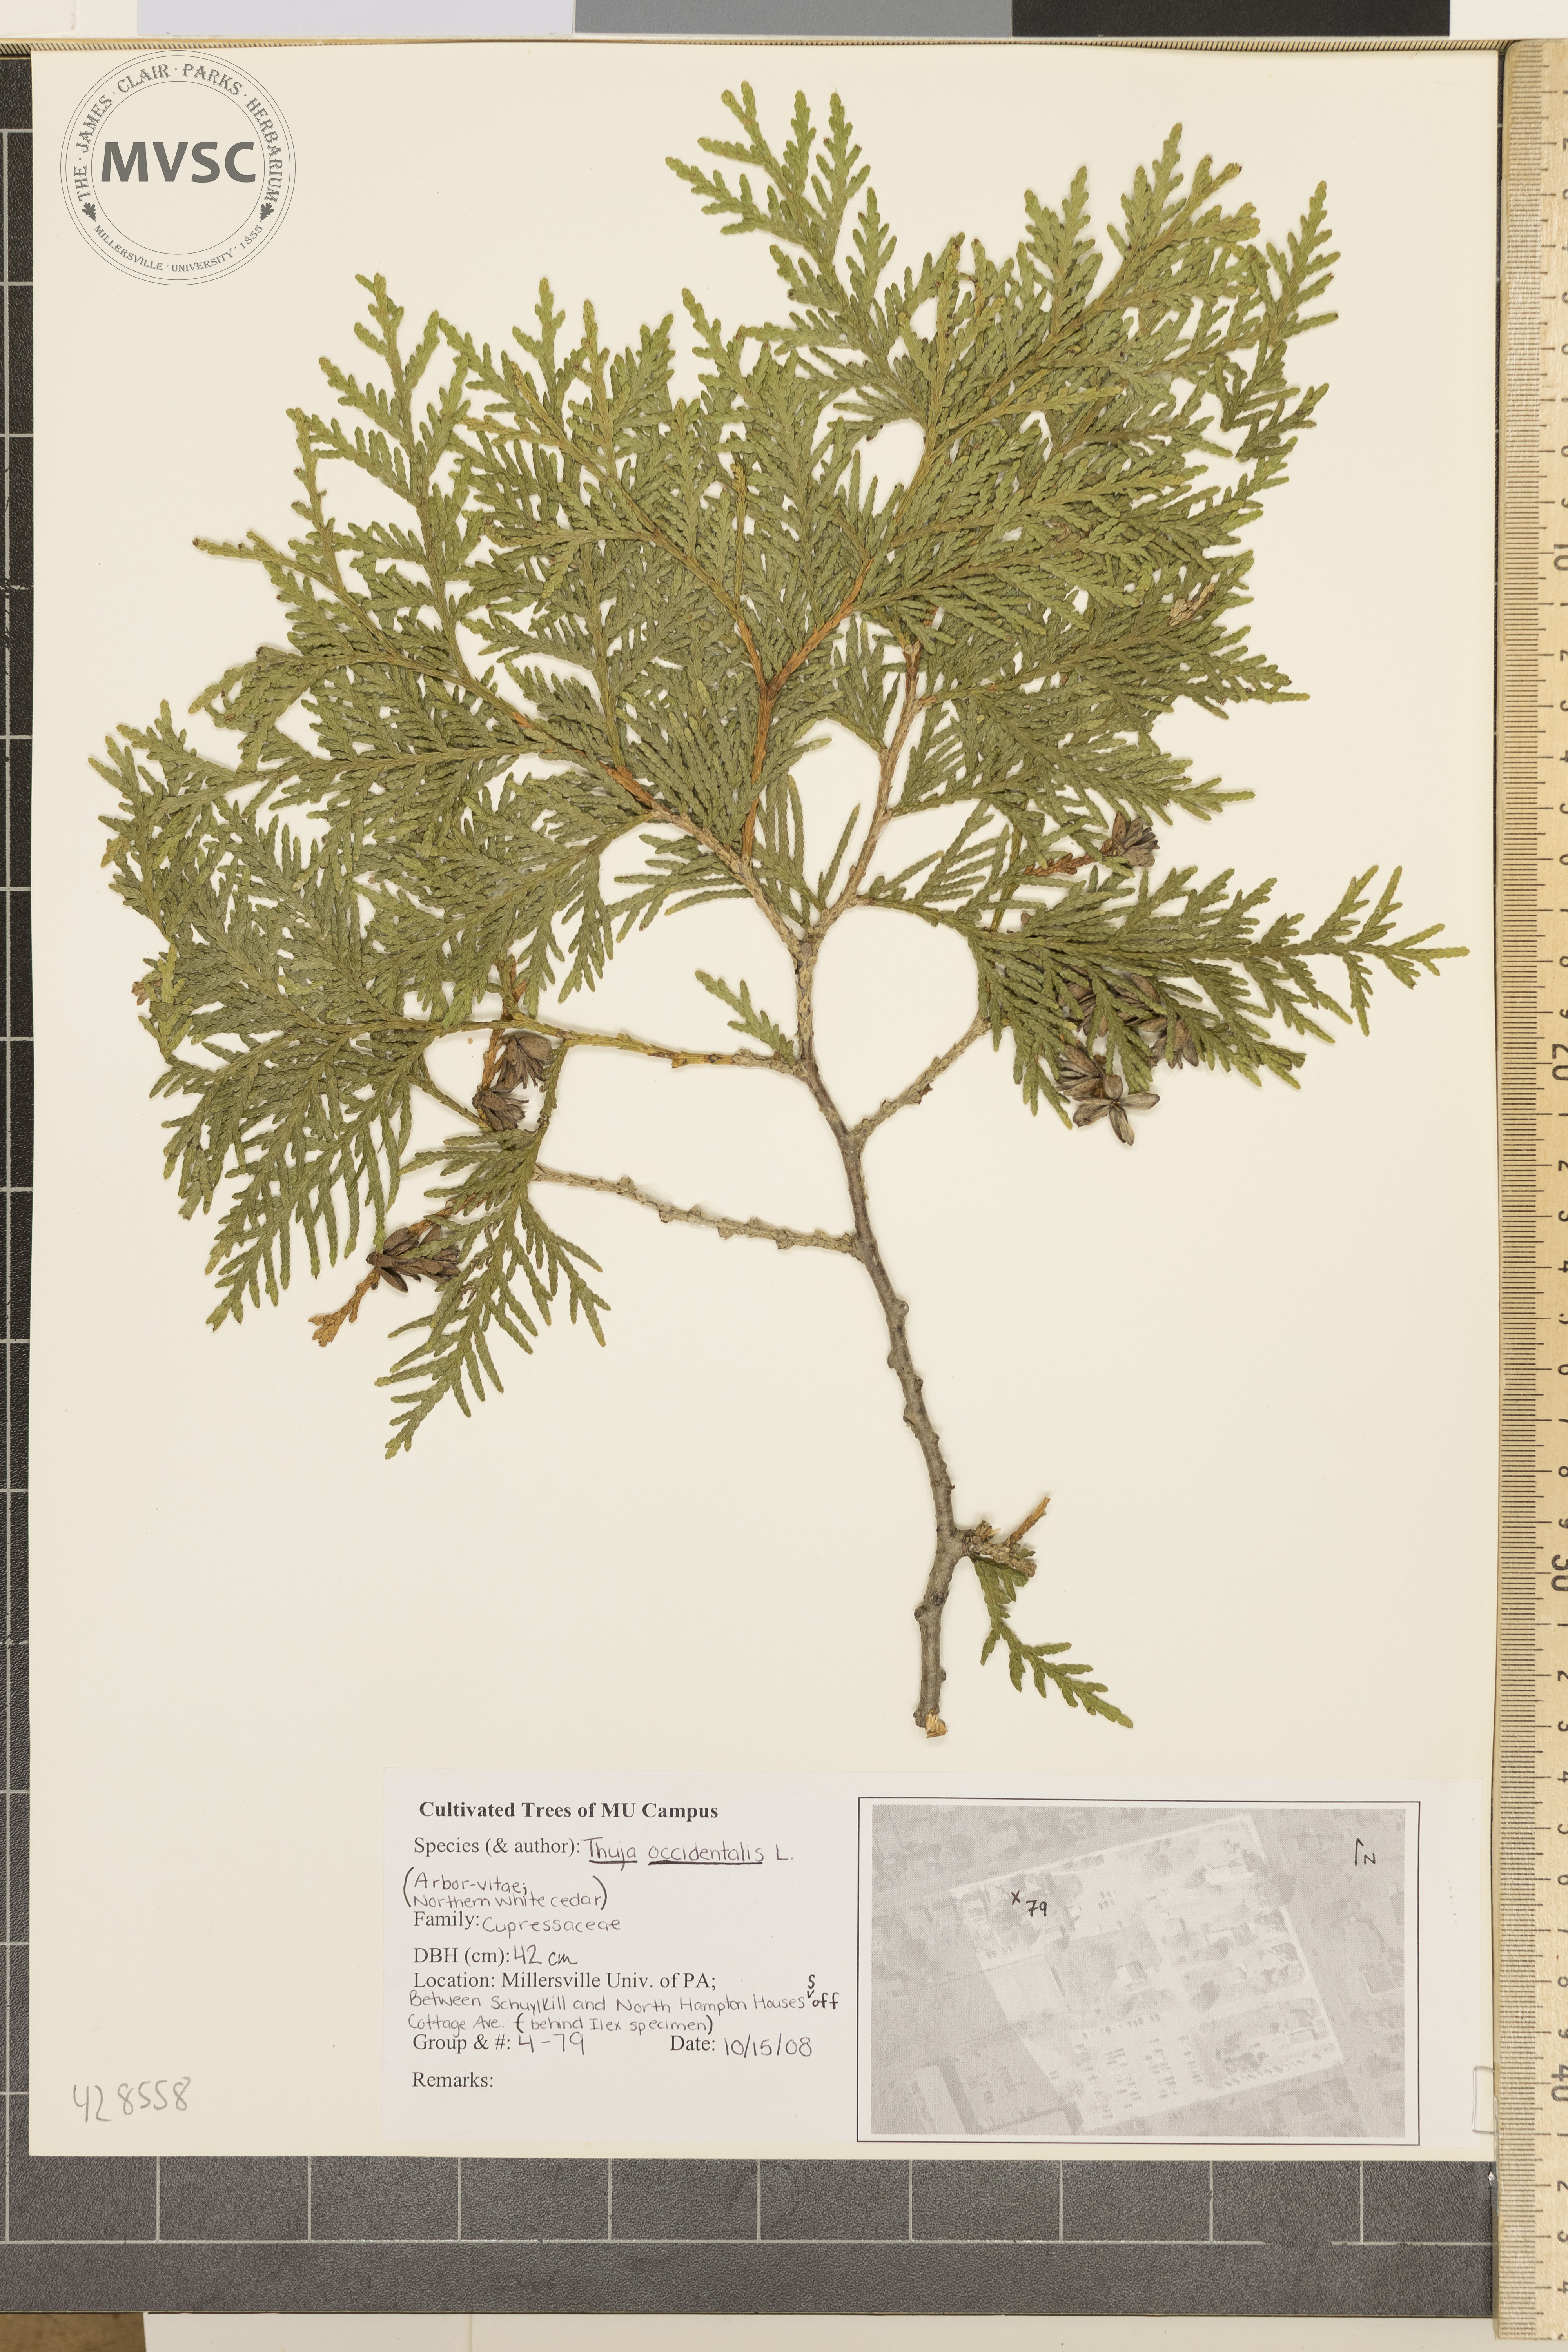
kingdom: Plantae
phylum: Tracheophyta
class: Pinopsida
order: Pinales
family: Cupressaceae
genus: Thuja
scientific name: Thuja occidentalis
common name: Arborvitae
